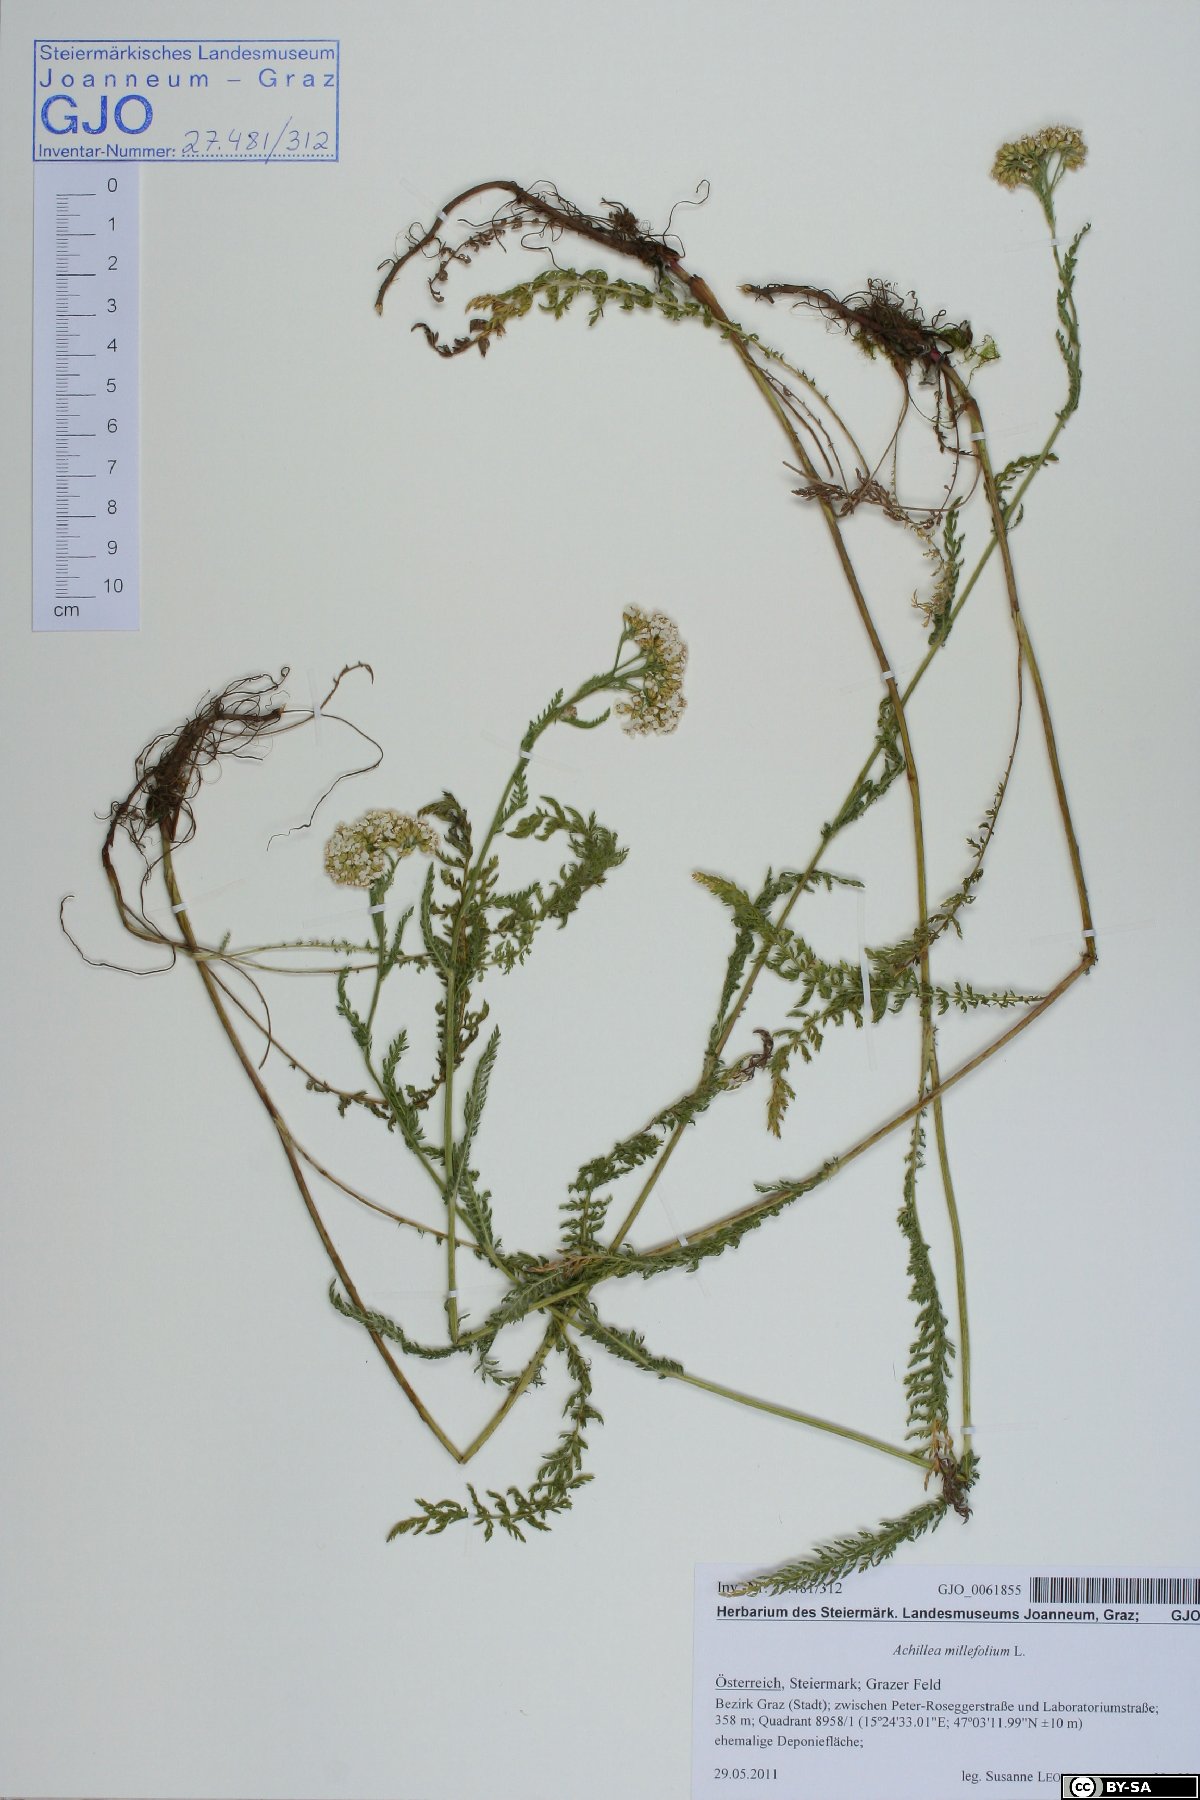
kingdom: Plantae
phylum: Tracheophyta
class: Magnoliopsida
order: Asterales
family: Asteraceae
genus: Achillea
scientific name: Achillea millefolium
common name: Yarrow
